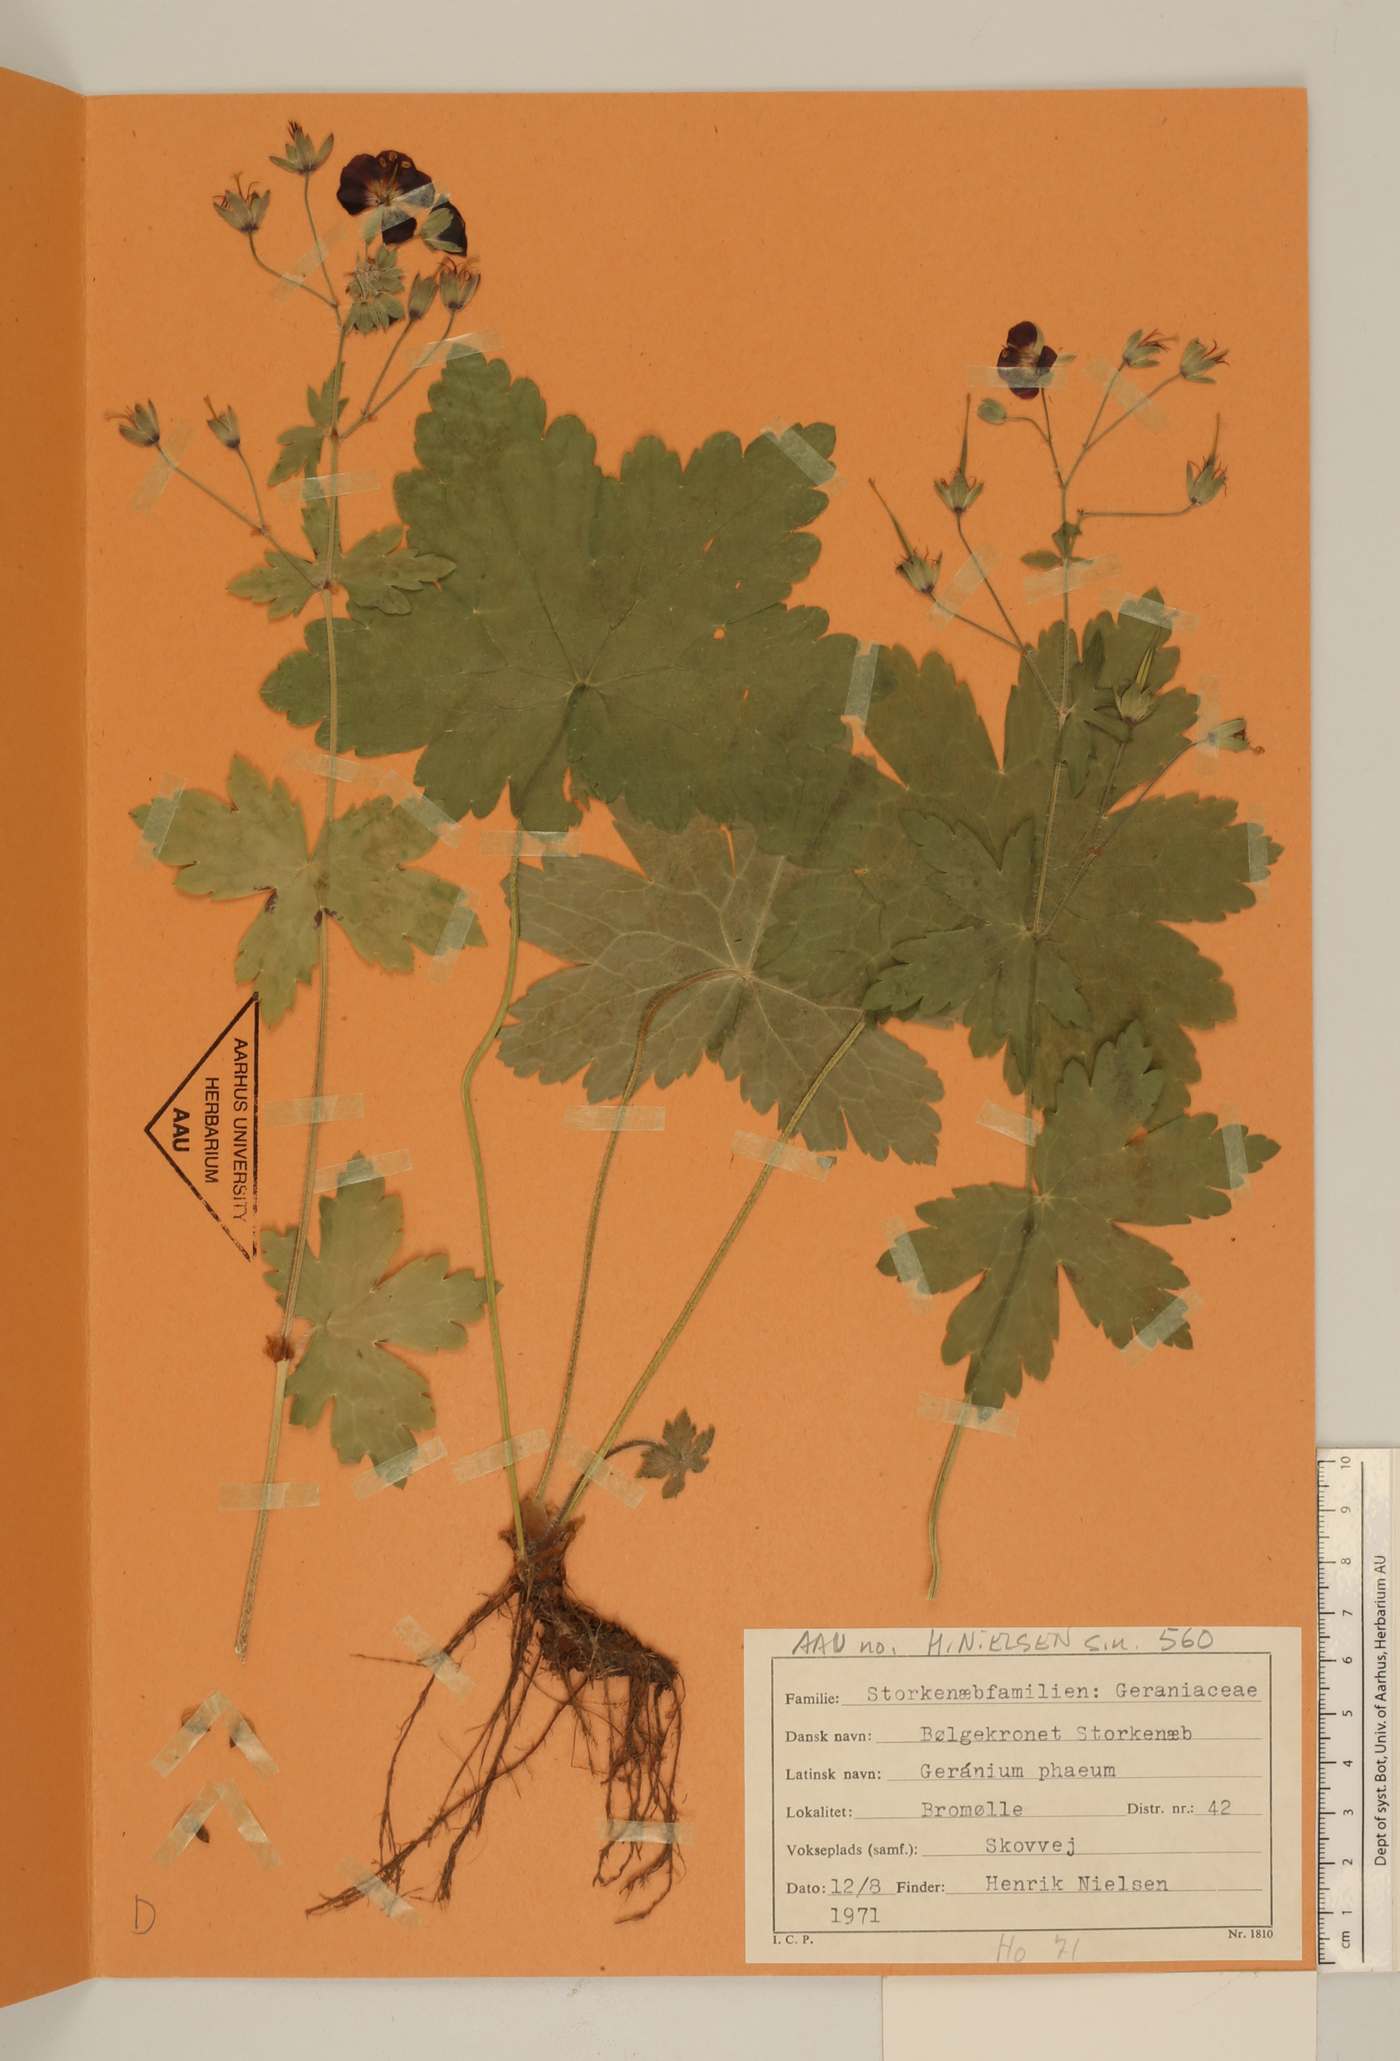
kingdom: Plantae
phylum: Tracheophyta
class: Magnoliopsida
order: Geraniales
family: Geraniaceae
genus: Geranium
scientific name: Geranium phaeum
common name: Dusky crane's-bill
